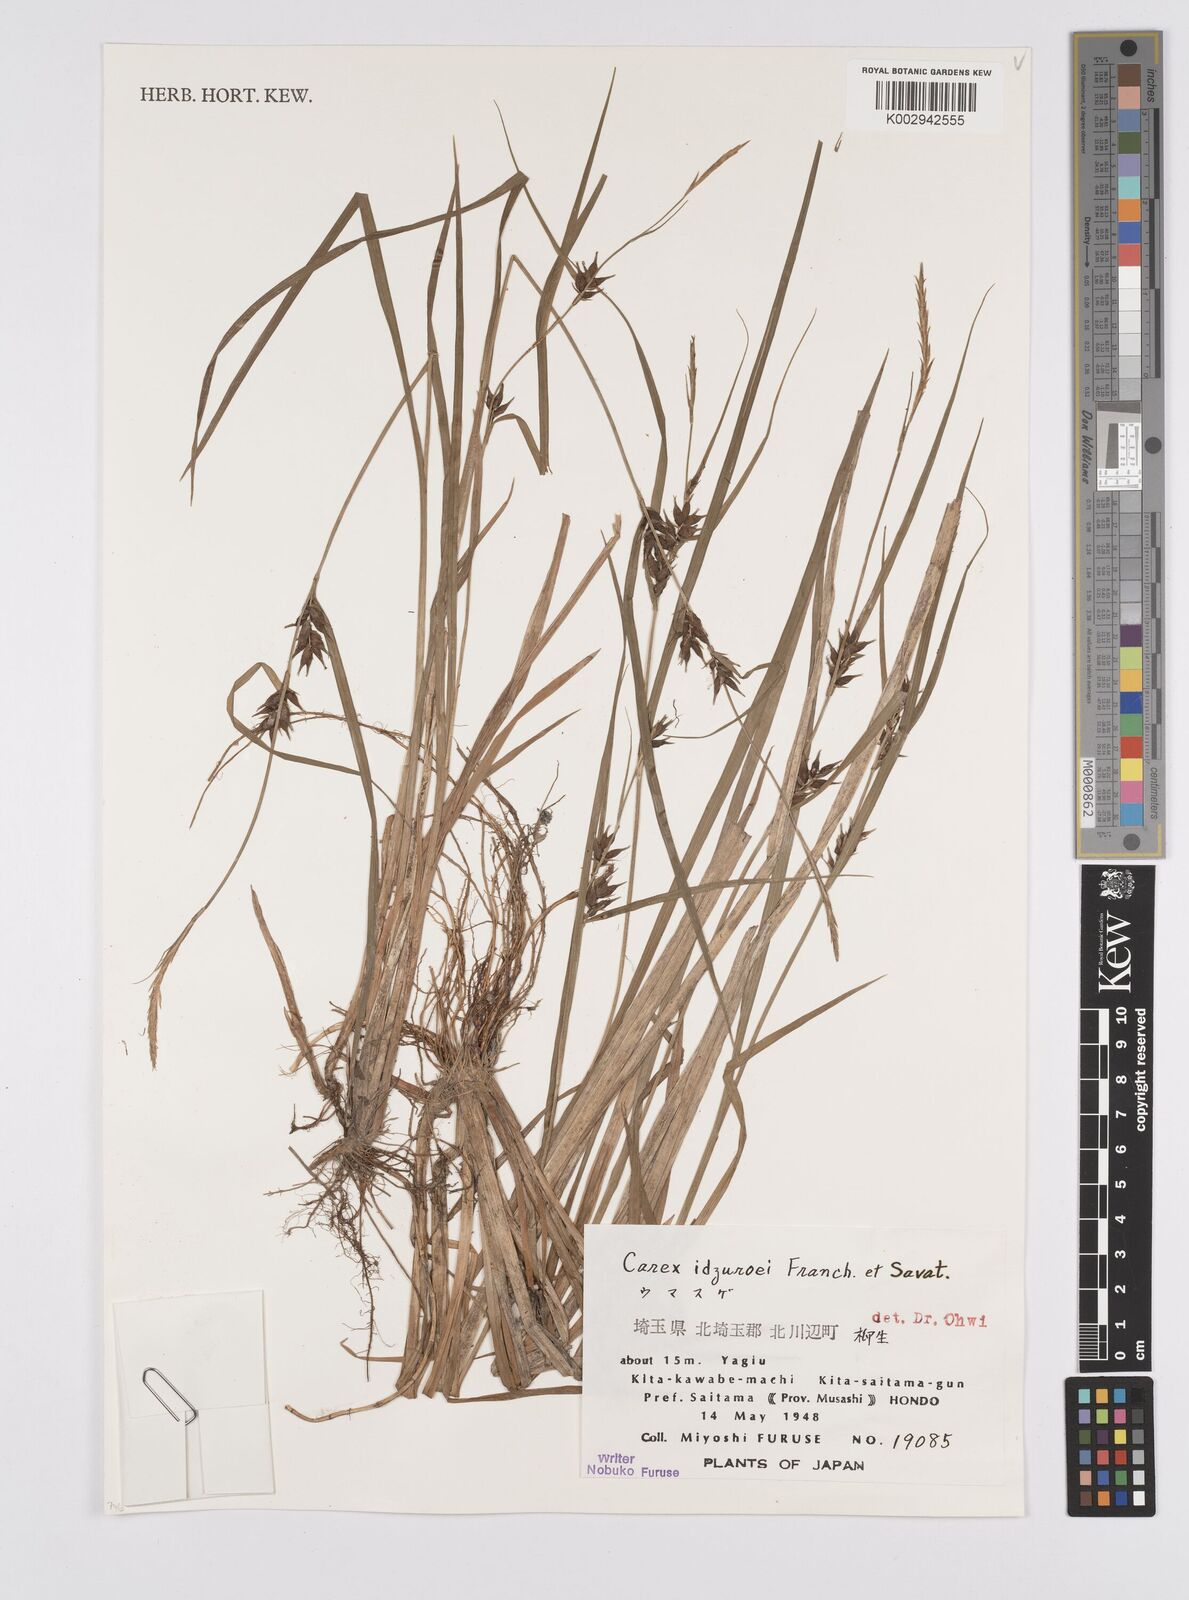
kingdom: Plantae
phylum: Tracheophyta
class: Liliopsida
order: Poales
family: Cyperaceae
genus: Carex
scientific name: Carex idzuroei
